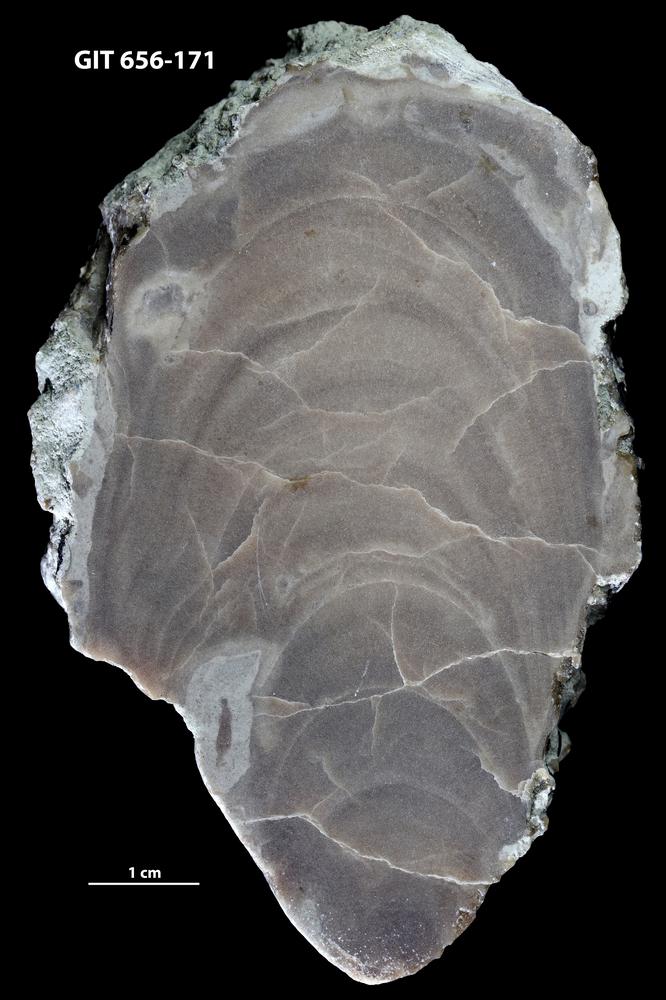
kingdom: Animalia
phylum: Porifera
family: Stromatoporidae
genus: Stromatopora
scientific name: Stromatopora
